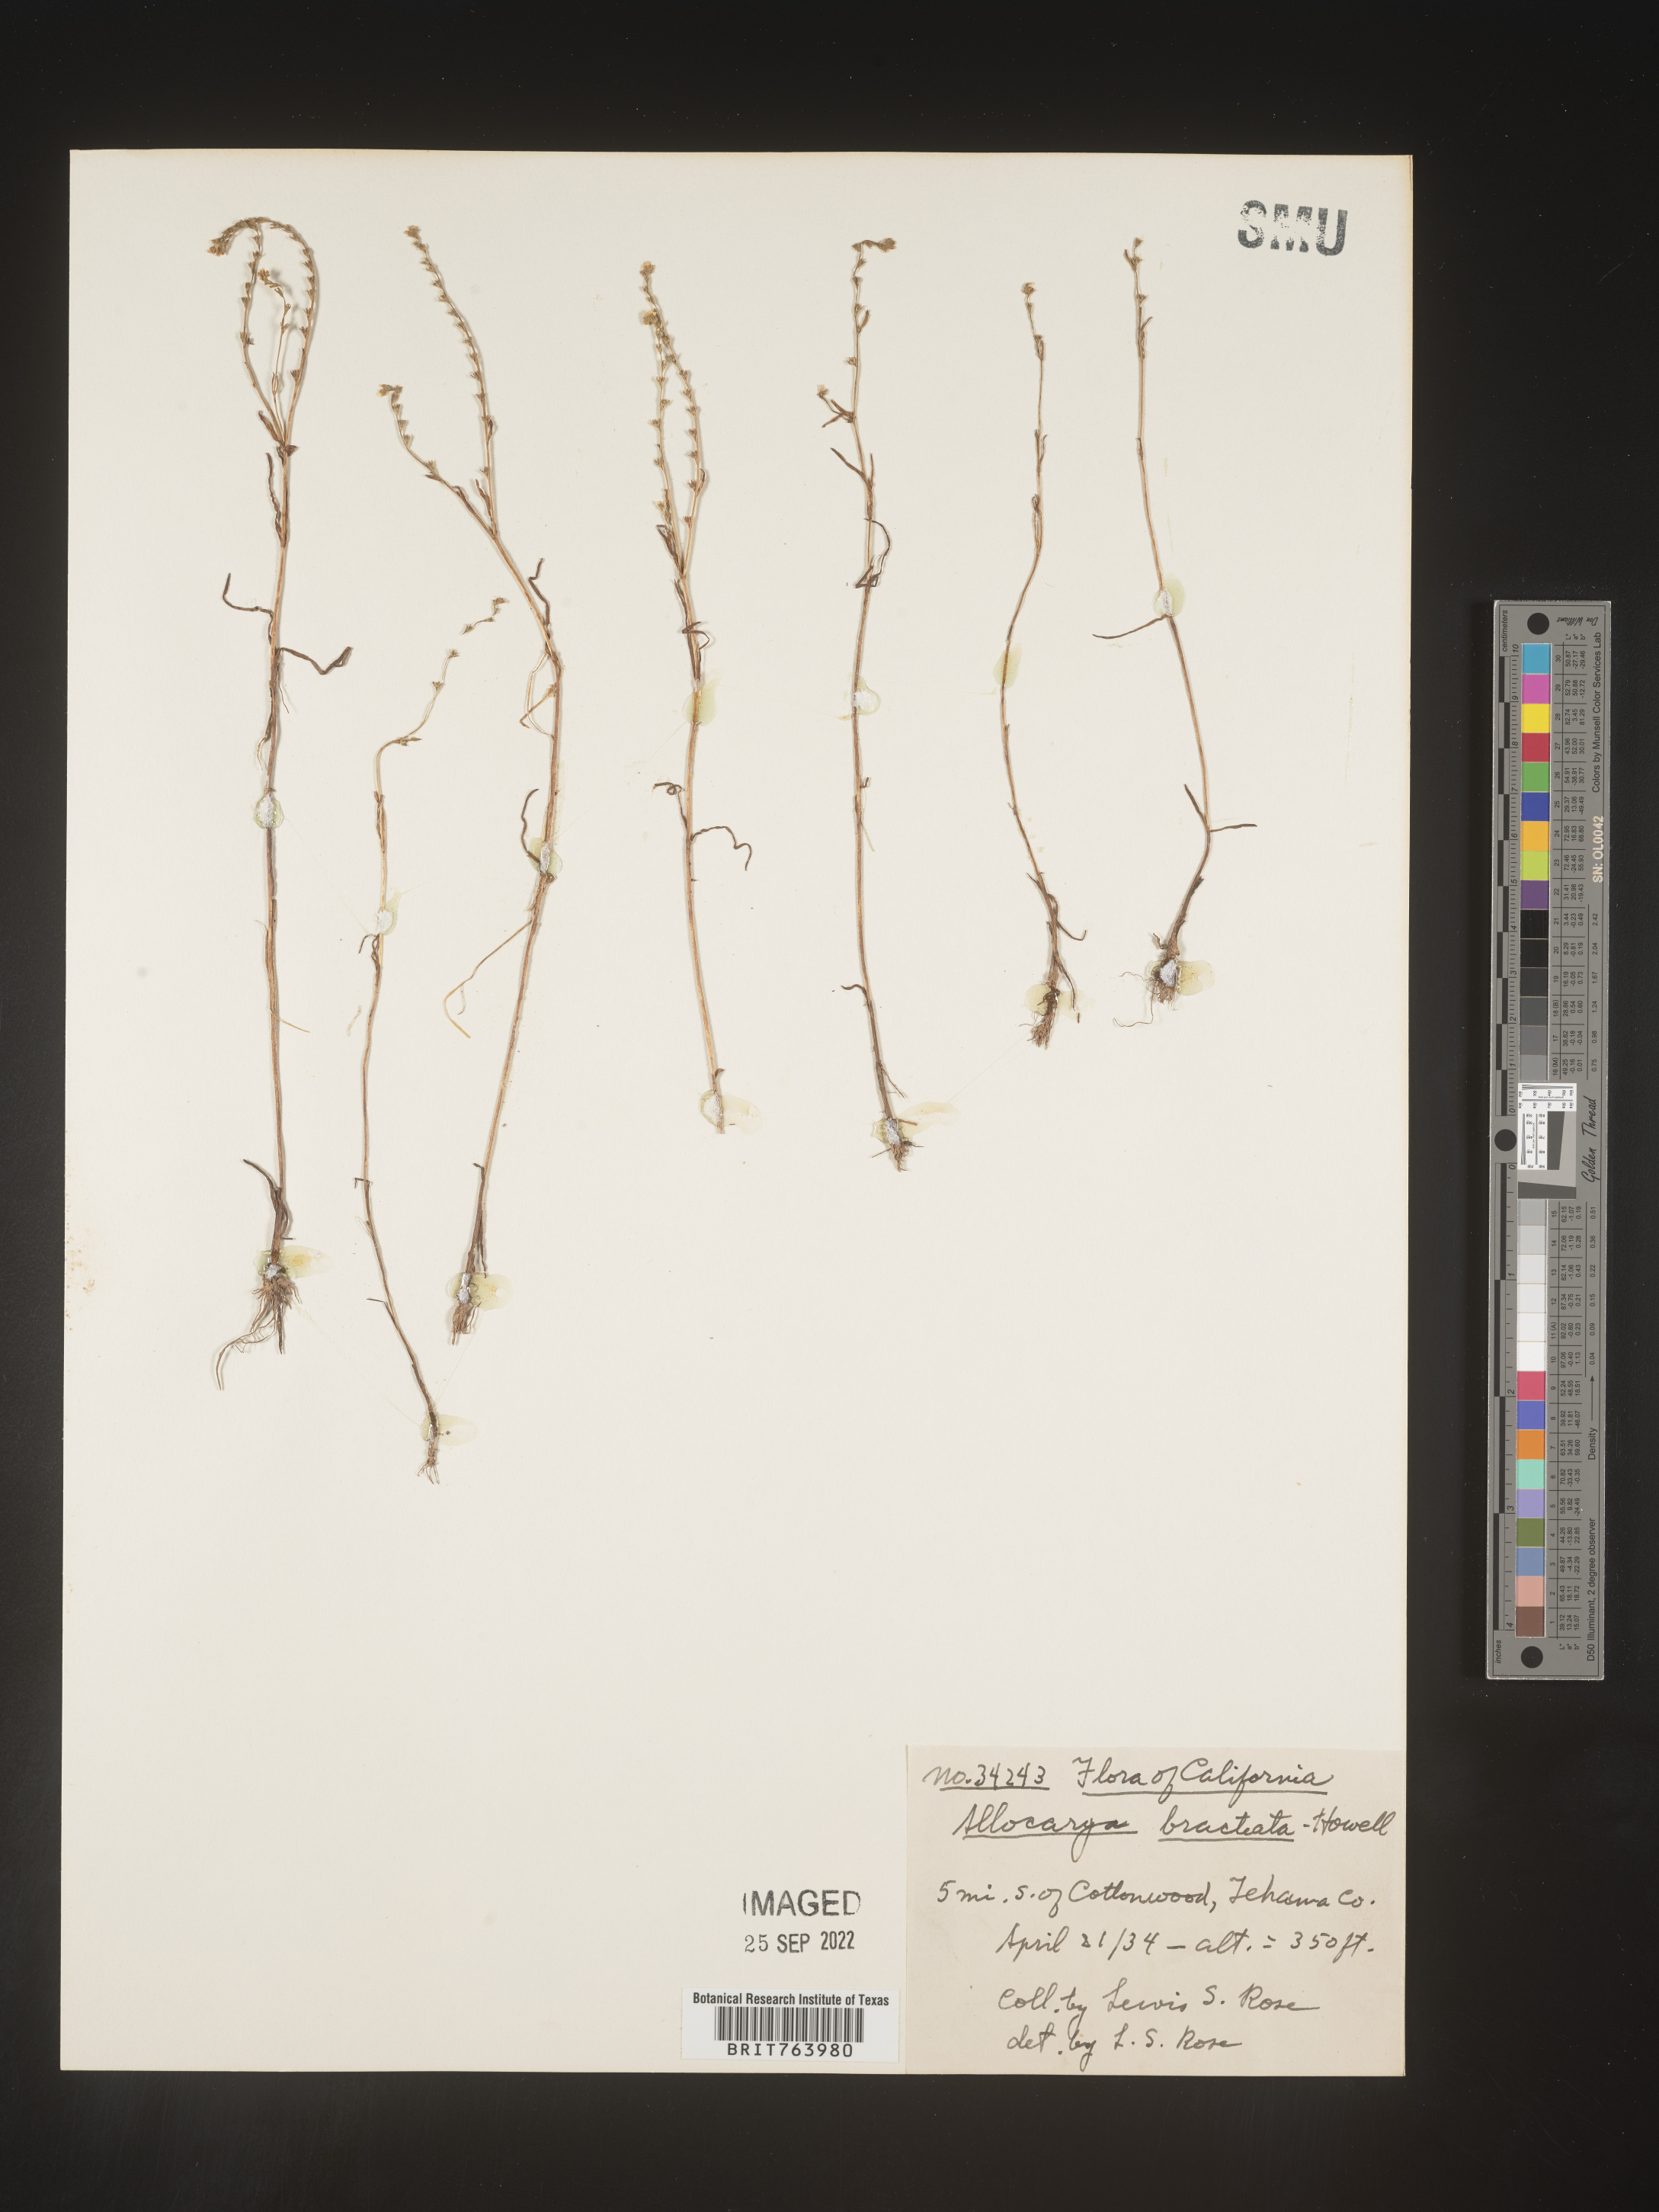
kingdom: Plantae
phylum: Tracheophyta
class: Magnoliopsida
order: Boraginales
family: Boraginaceae
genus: Plagiobothrys
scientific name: Plagiobothrys
